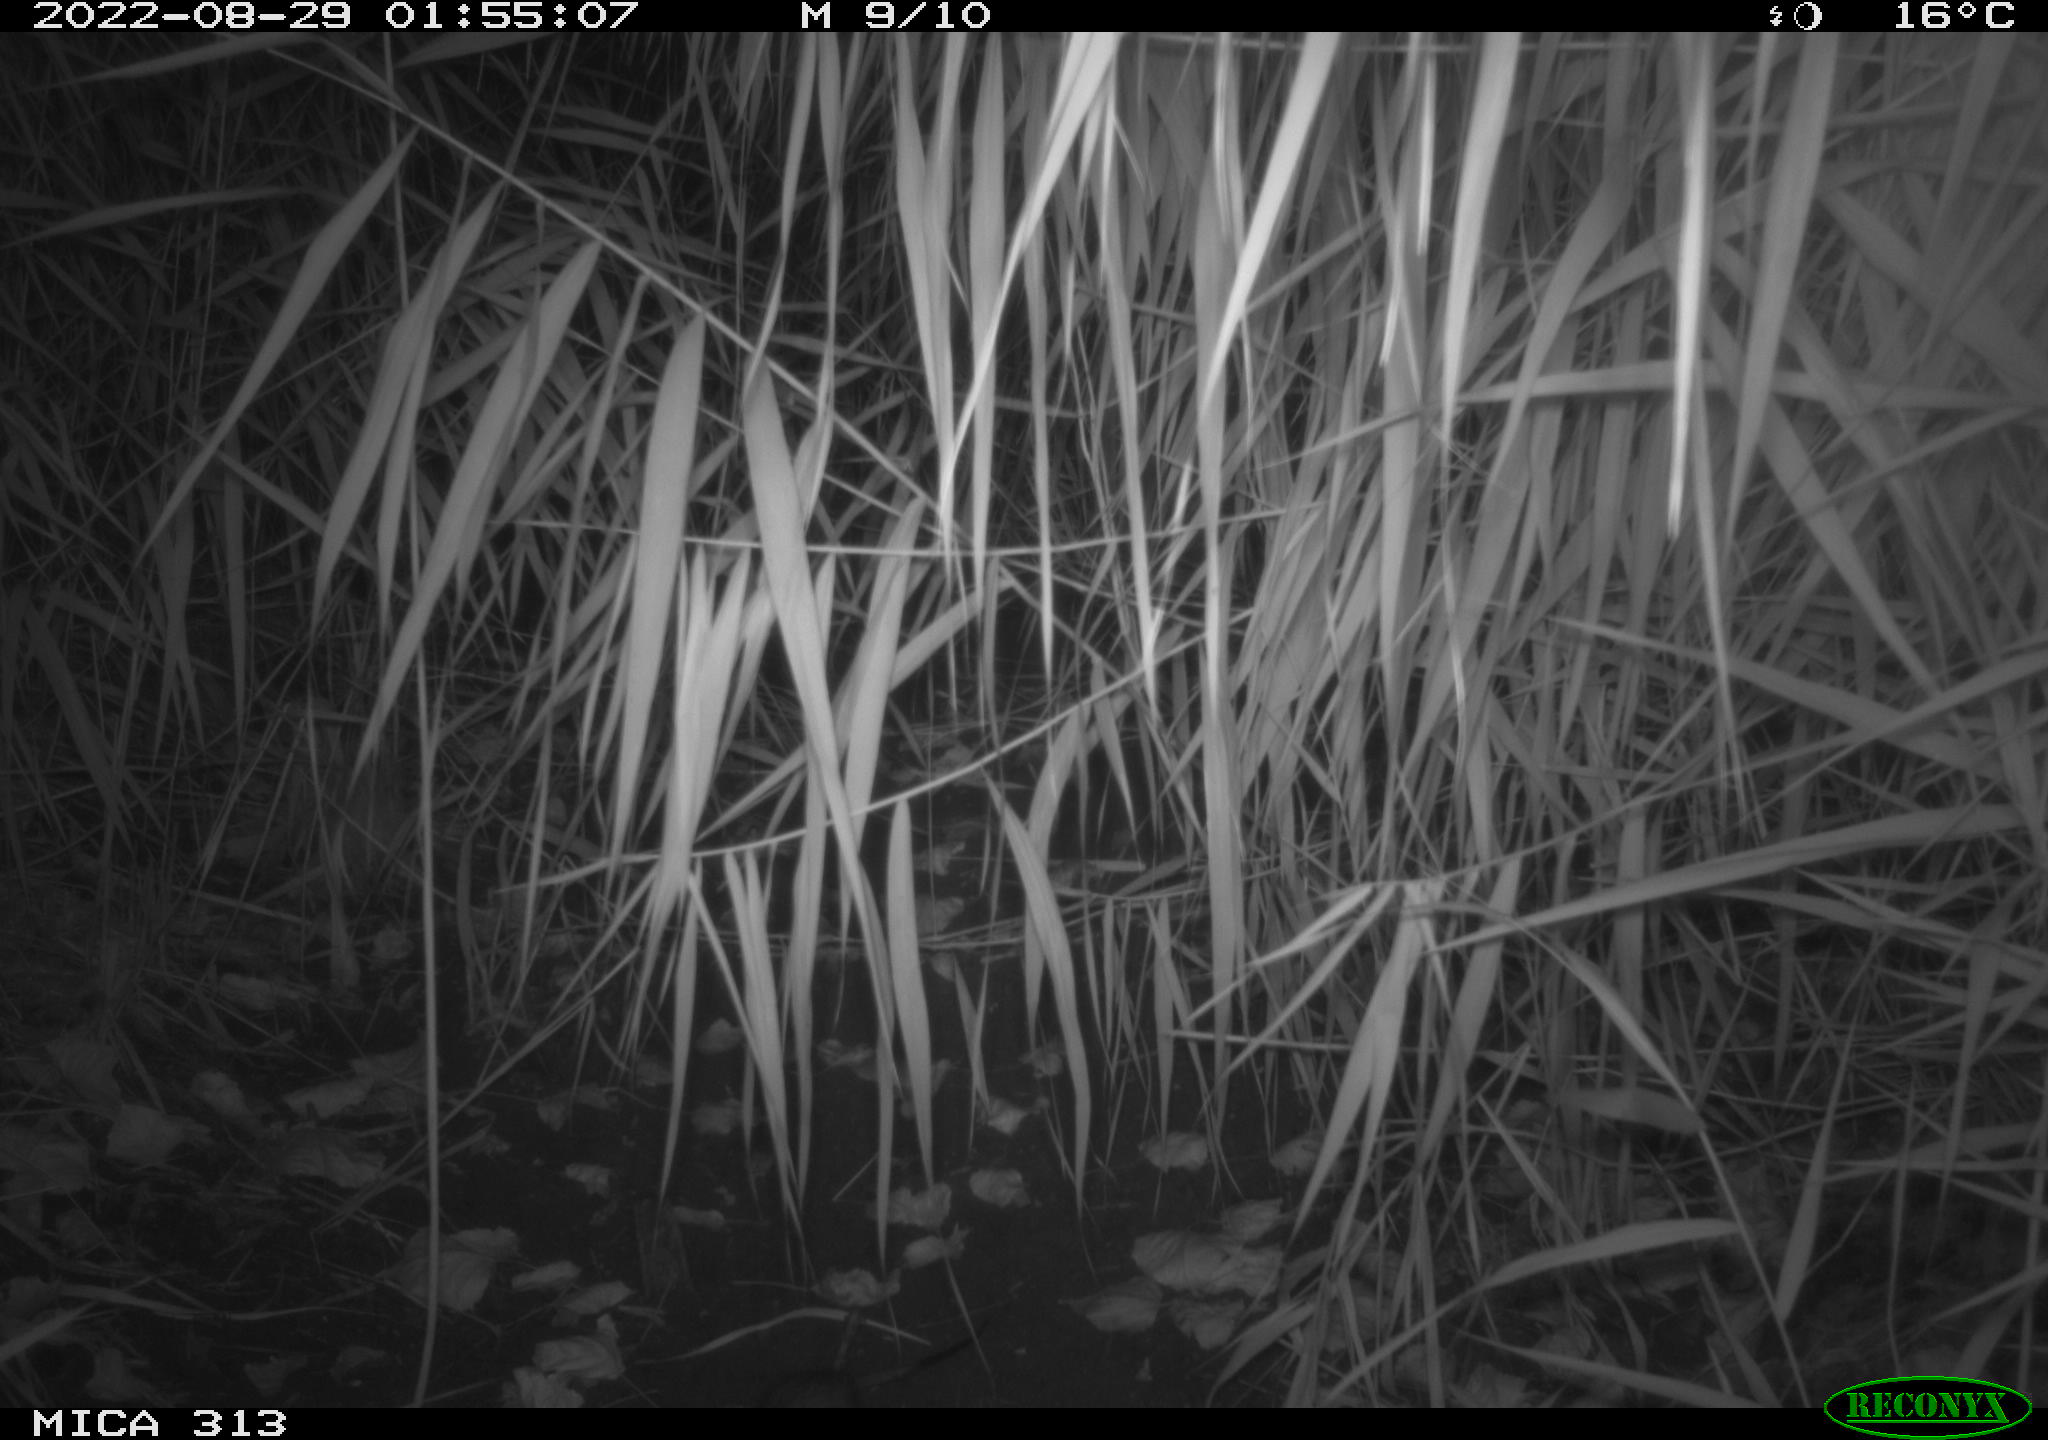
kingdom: Animalia
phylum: Chordata
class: Mammalia
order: Rodentia
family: Muridae
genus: Rattus
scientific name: Rattus norvegicus
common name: Brown rat
